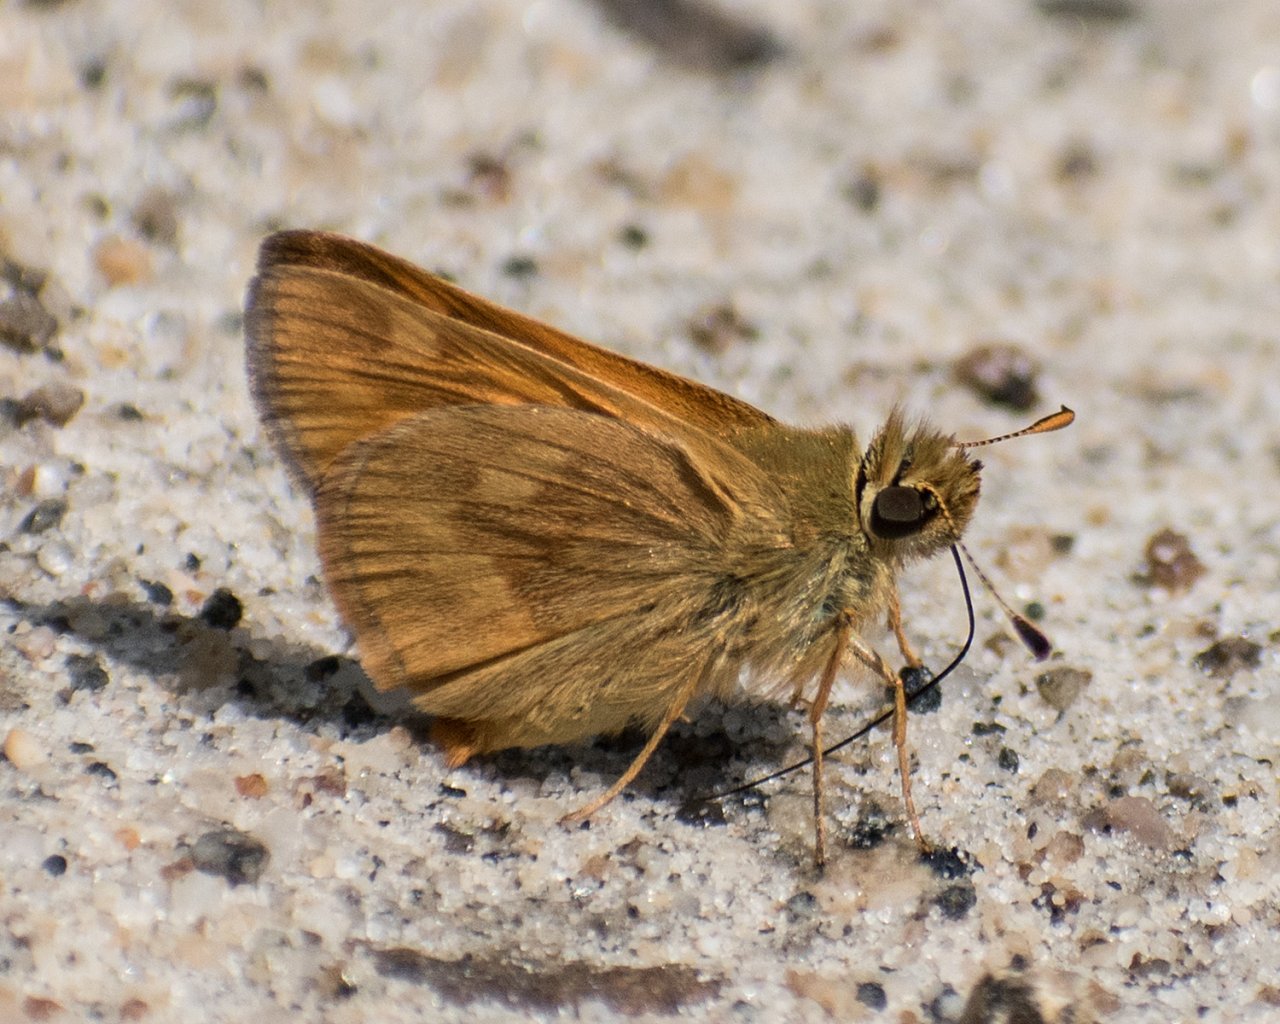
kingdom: Animalia
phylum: Arthropoda
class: Insecta
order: Lepidoptera
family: Hesperiidae
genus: Ochlodes
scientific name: Ochlodes sylvanoides
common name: Woodland Skipper
